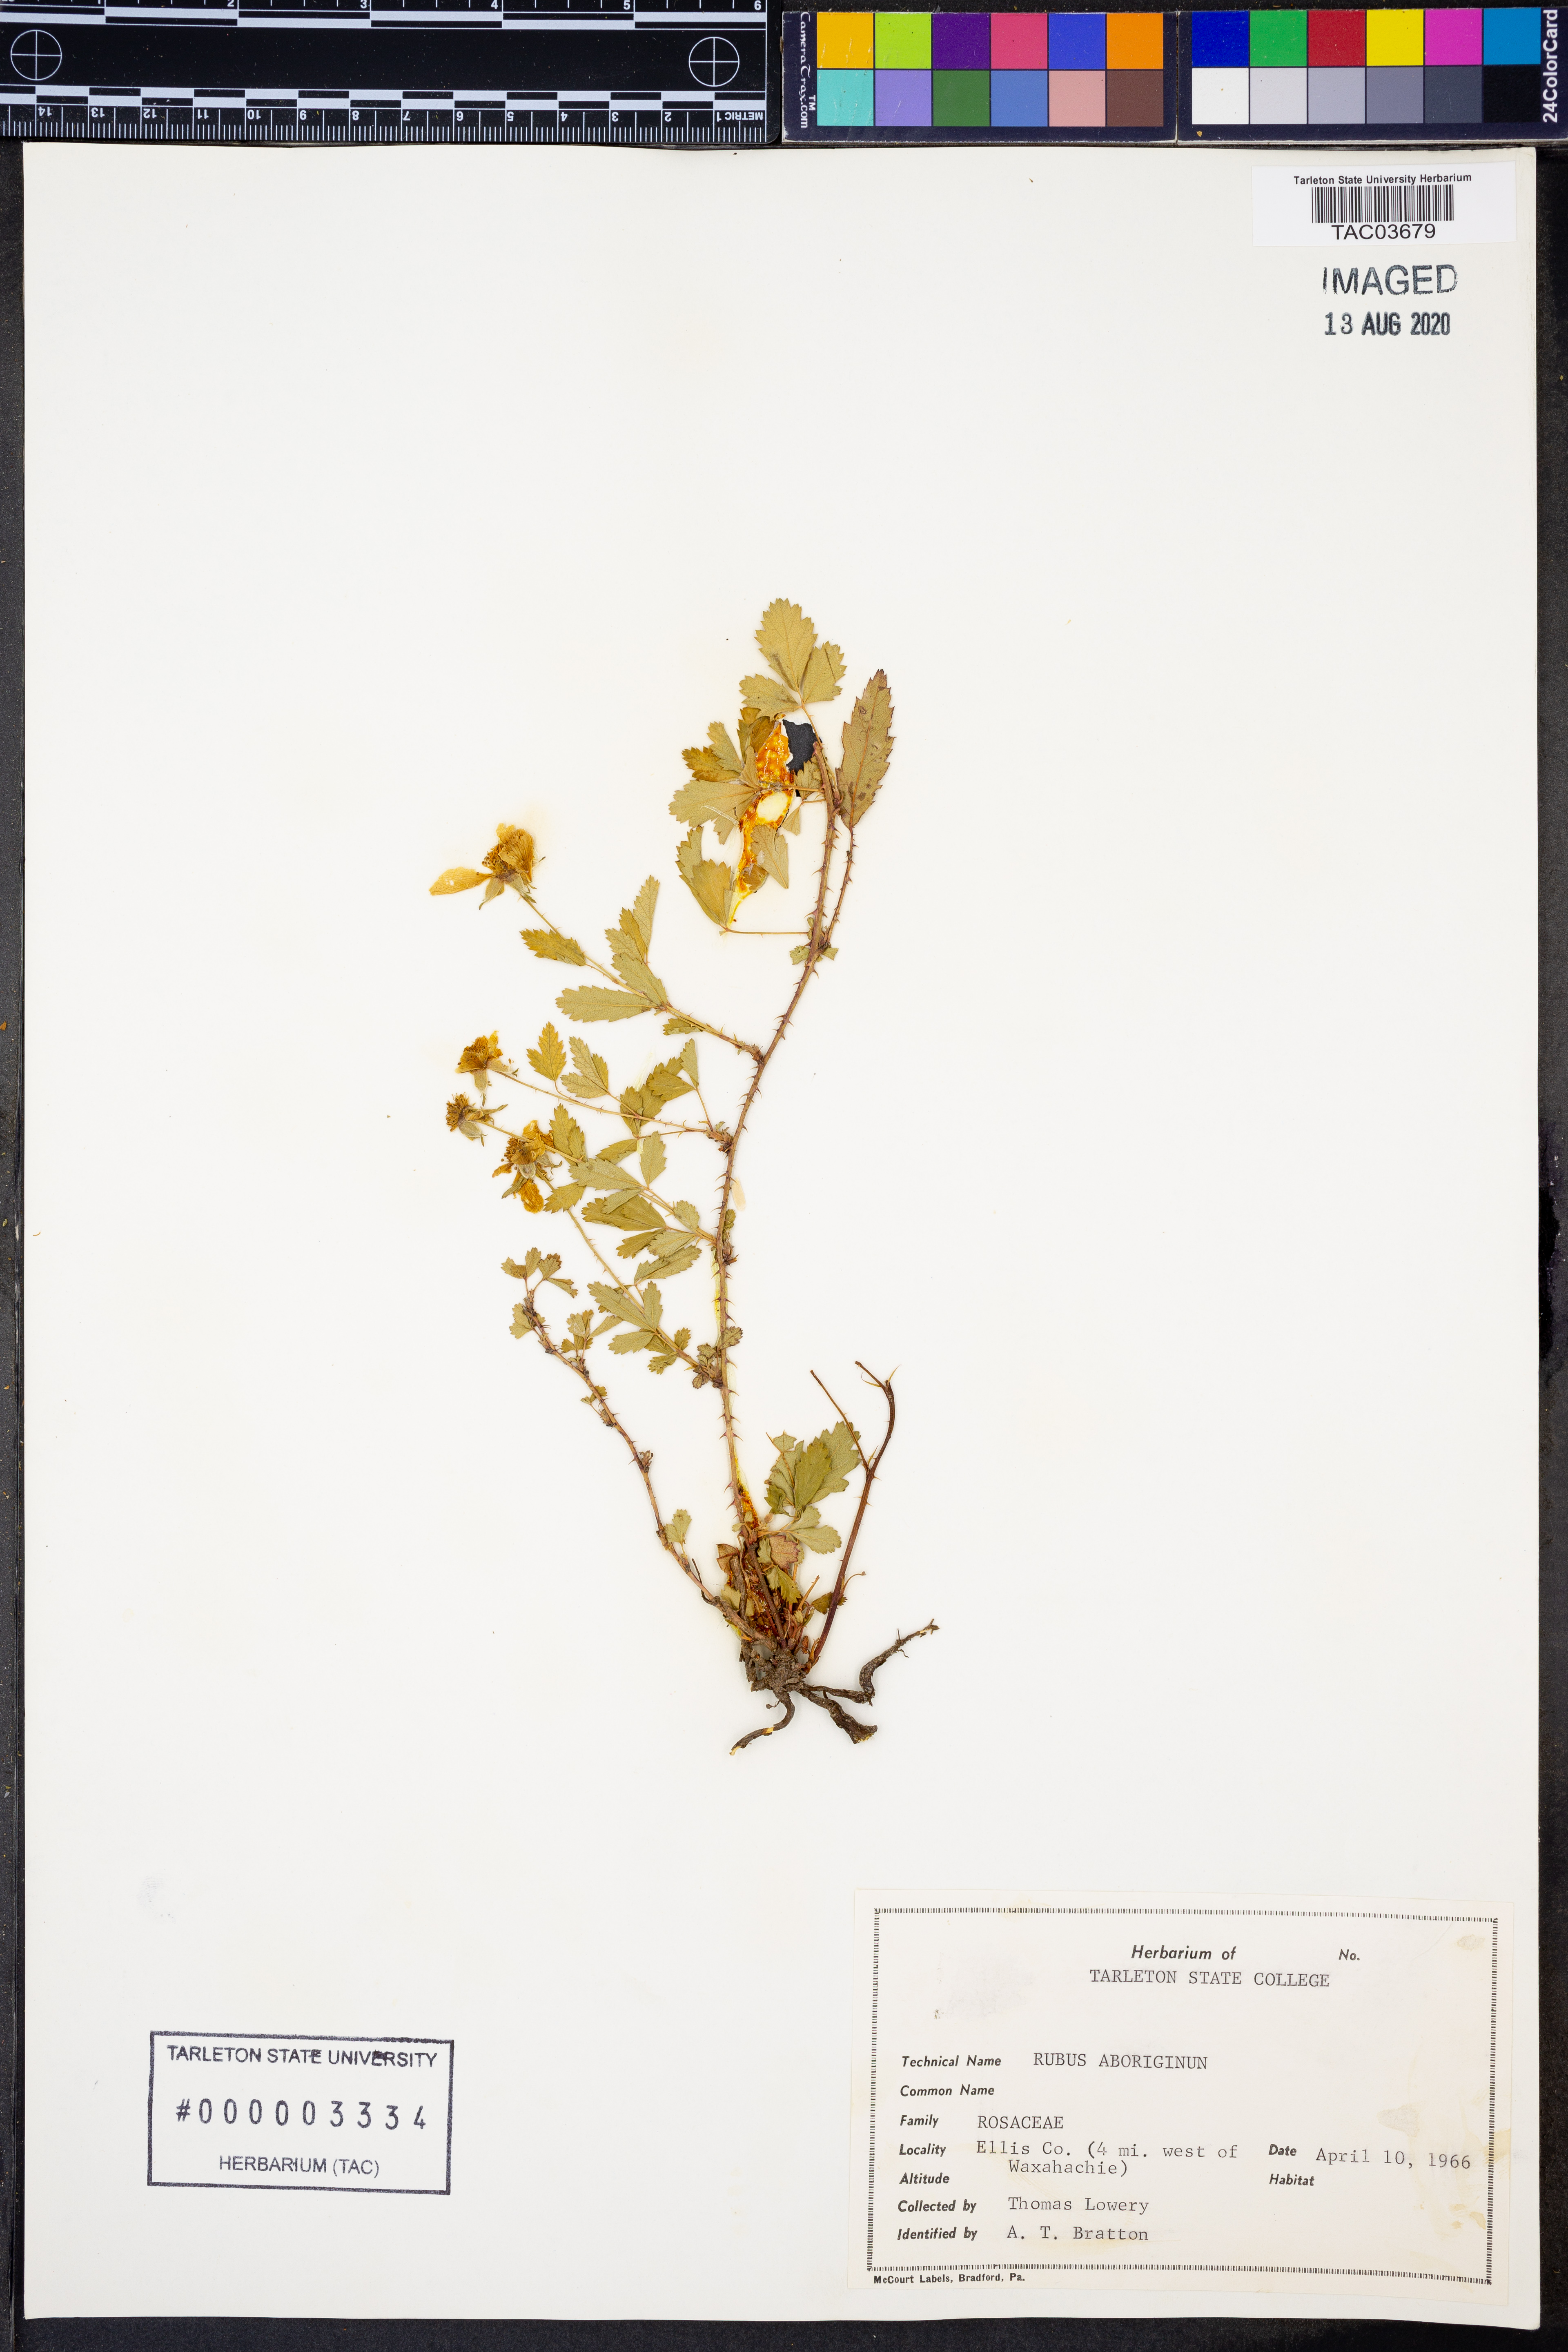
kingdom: Plantae
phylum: Tracheophyta
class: Magnoliopsida
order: Rosales
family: Rosaceae
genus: Rubus
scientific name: Rubus aboriginum
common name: Mayes dewberry
